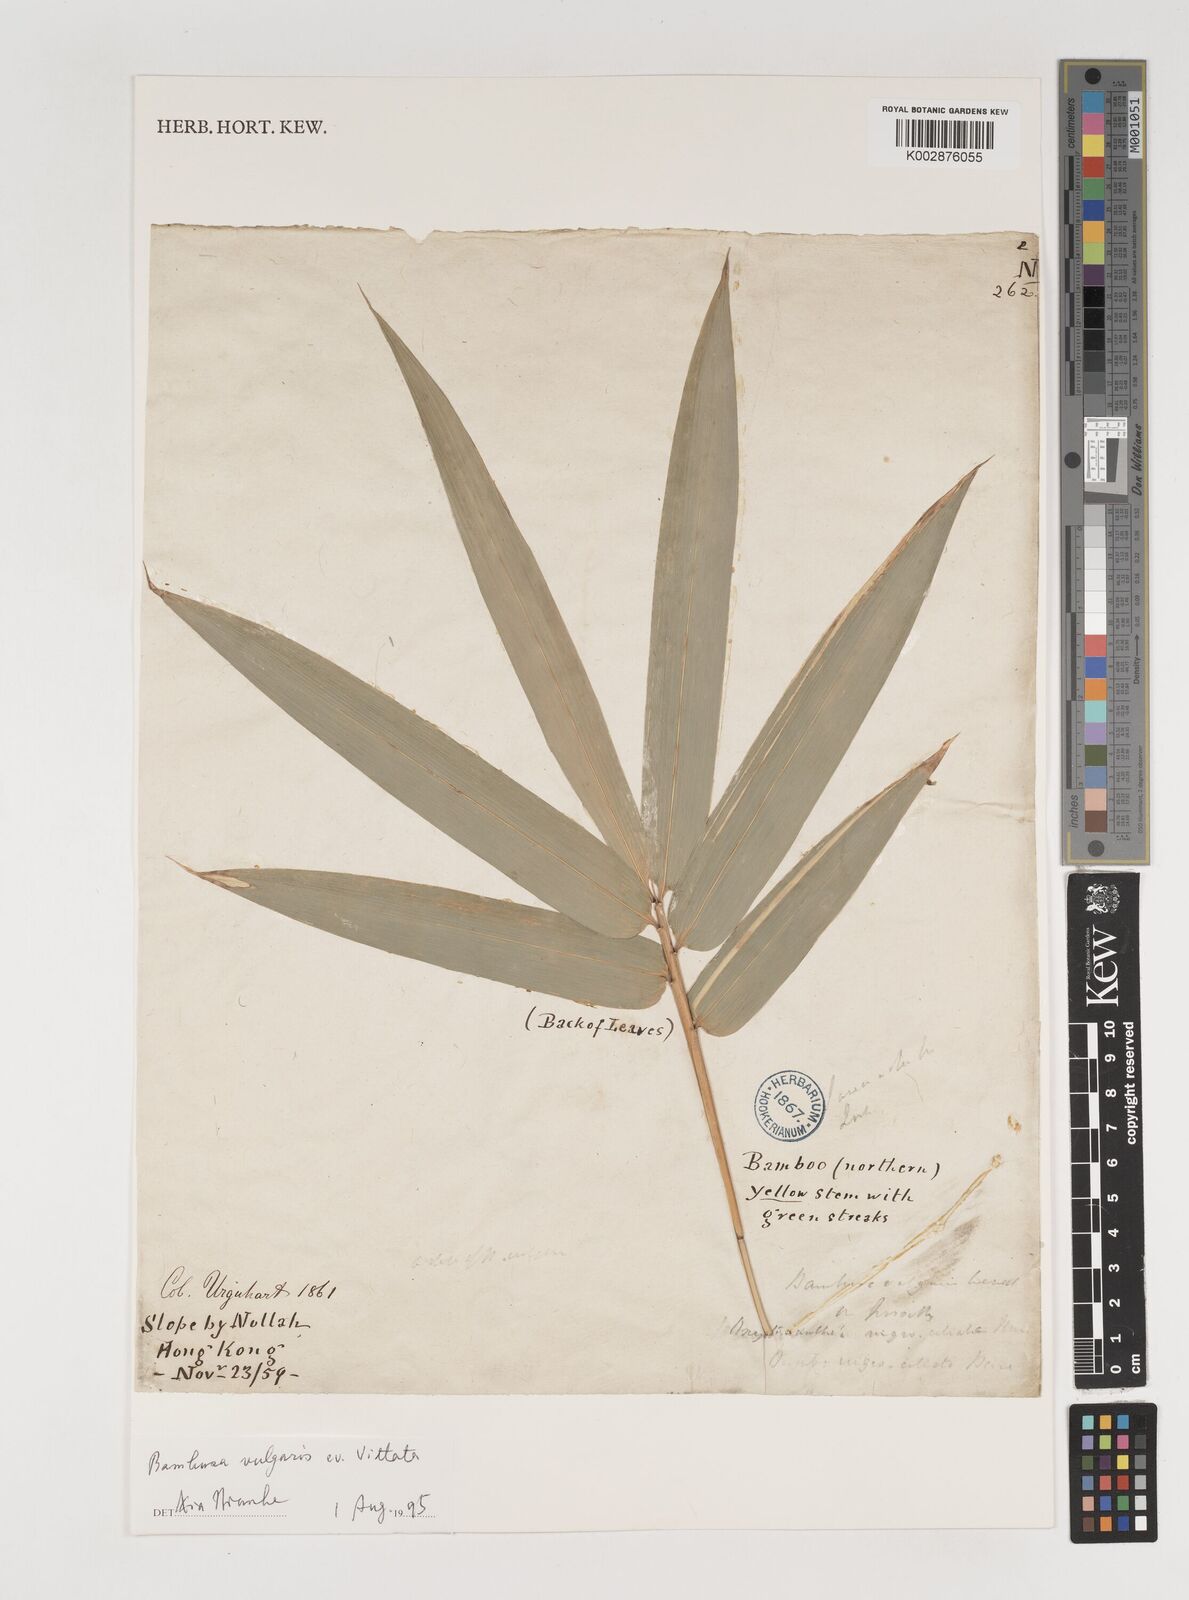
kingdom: Plantae
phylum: Tracheophyta
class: Liliopsida
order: Poales
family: Poaceae
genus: Bambusa
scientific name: Bambusa vulgaris
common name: Common bamboo
